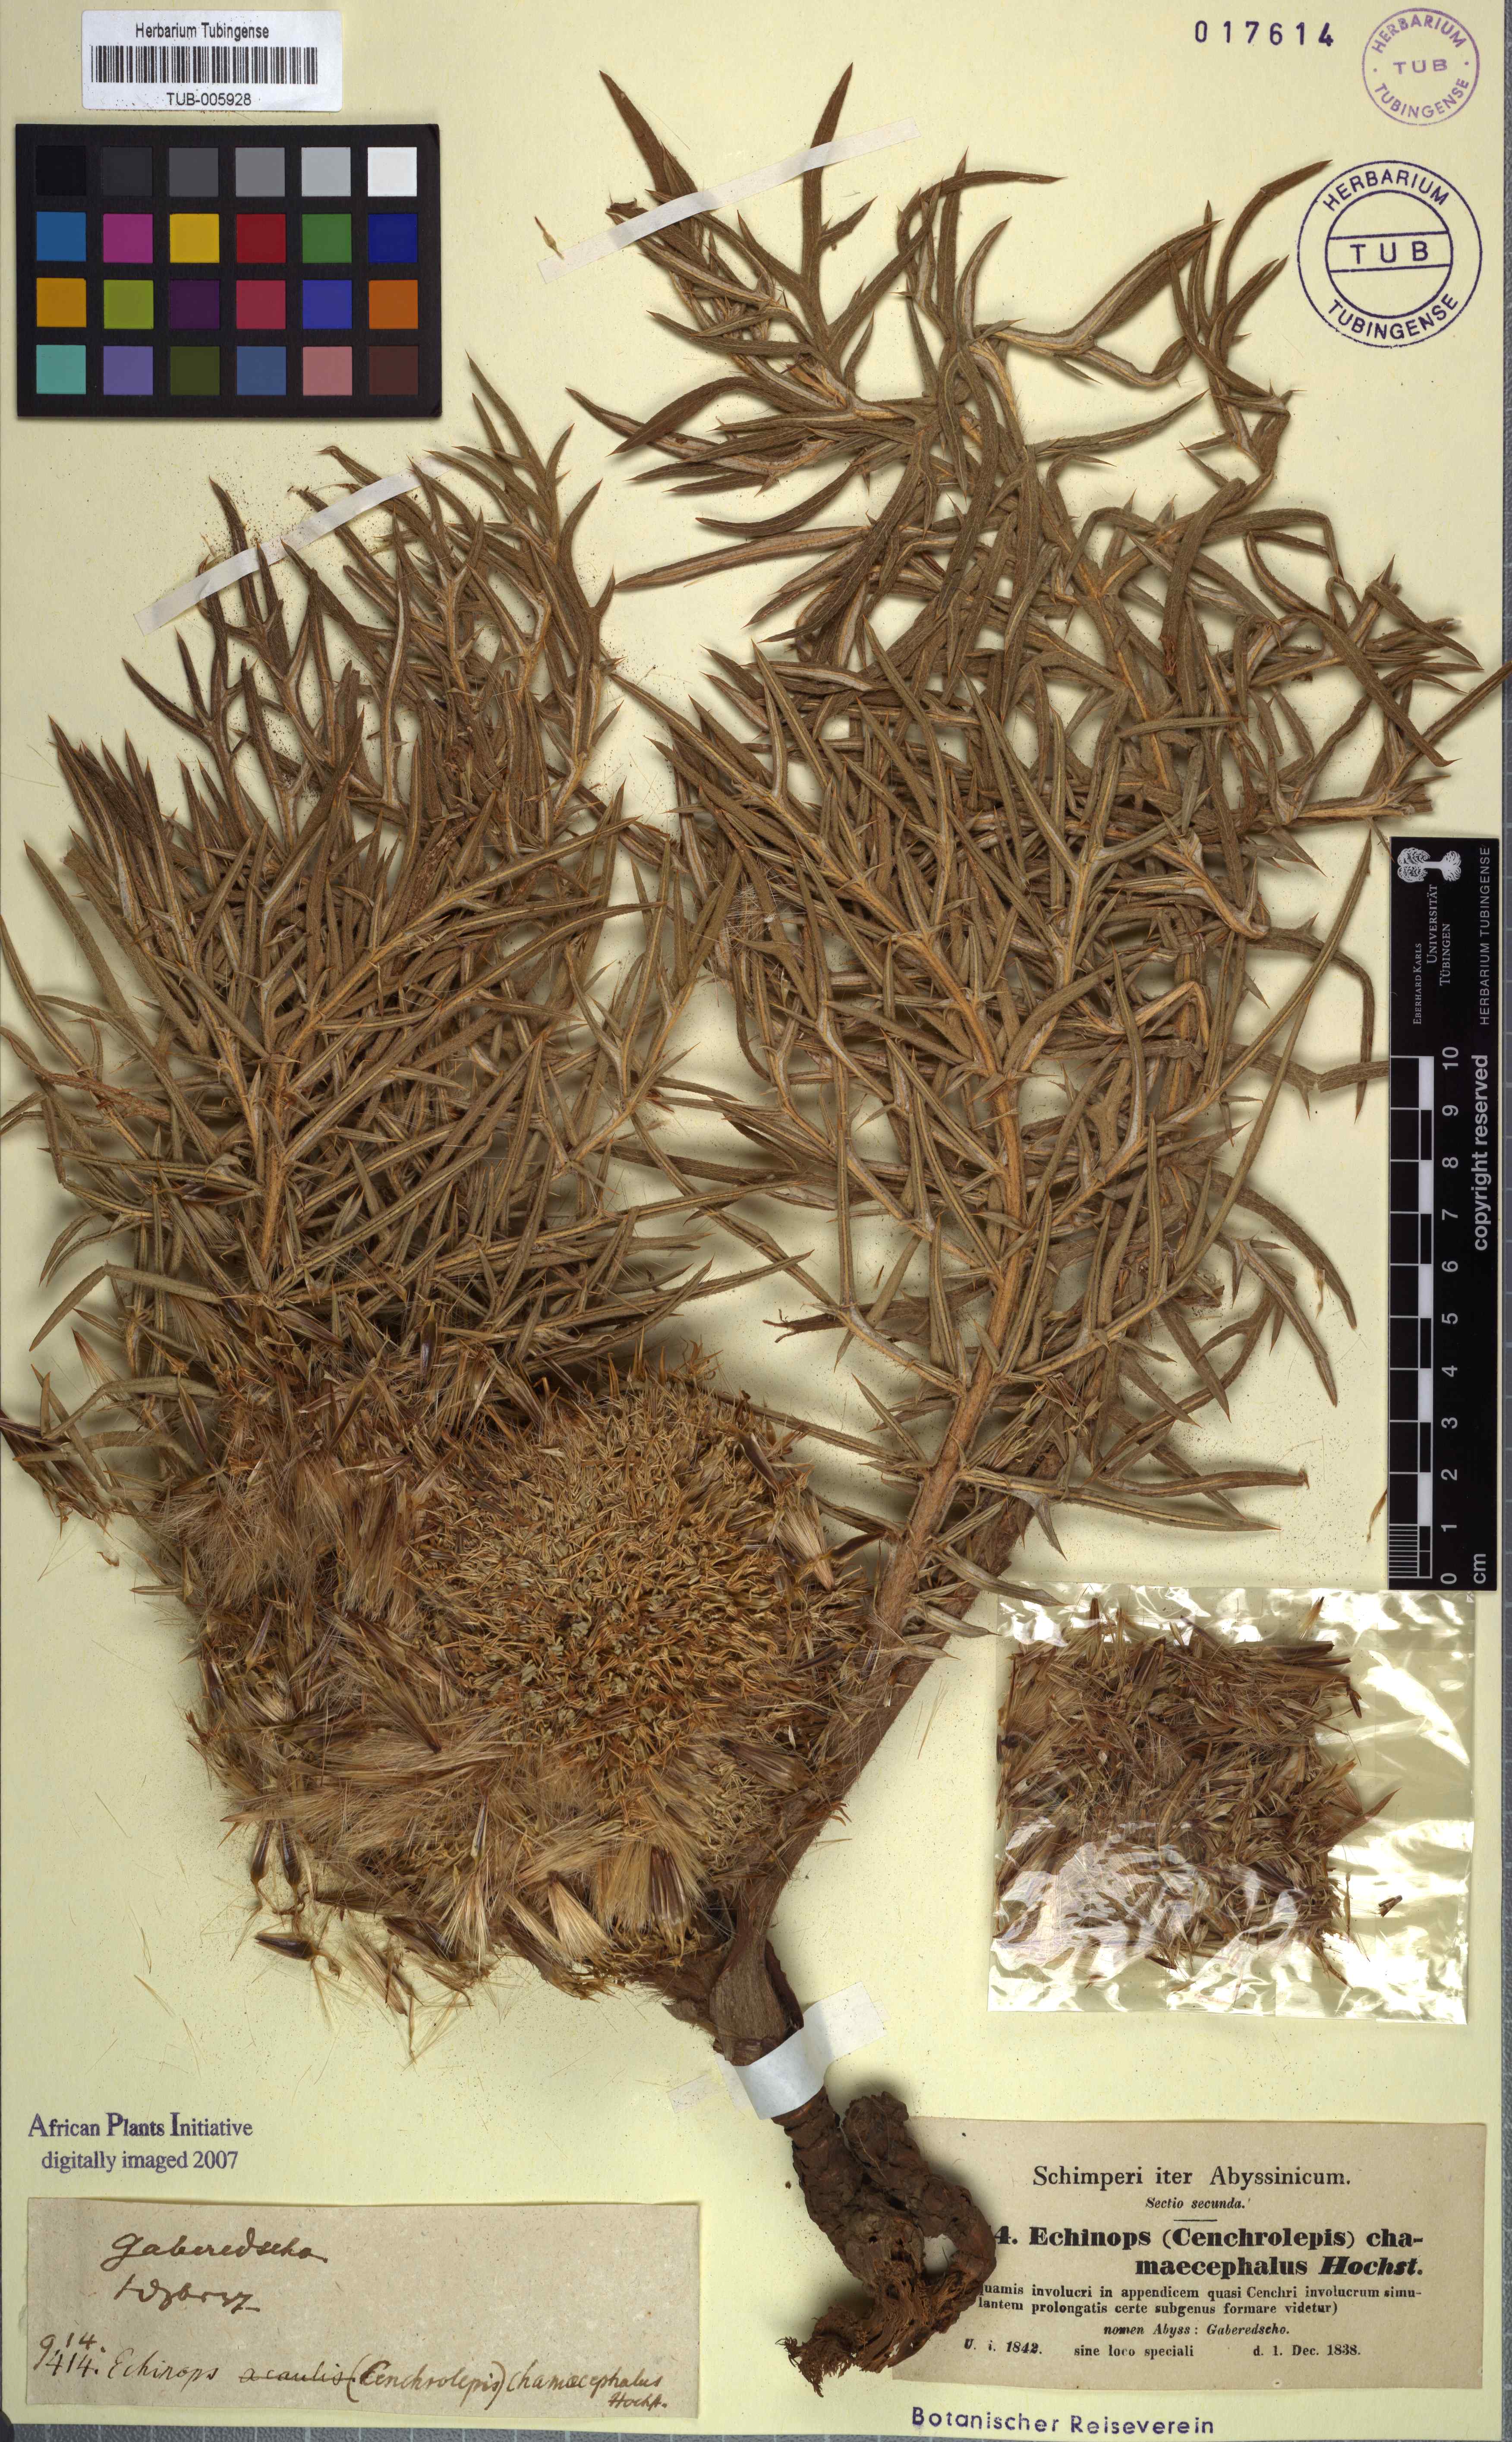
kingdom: Plantae
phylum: Tracheophyta
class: Magnoliopsida
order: Asterales
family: Asteraceae
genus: Echinops
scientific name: Echinops hispidus
